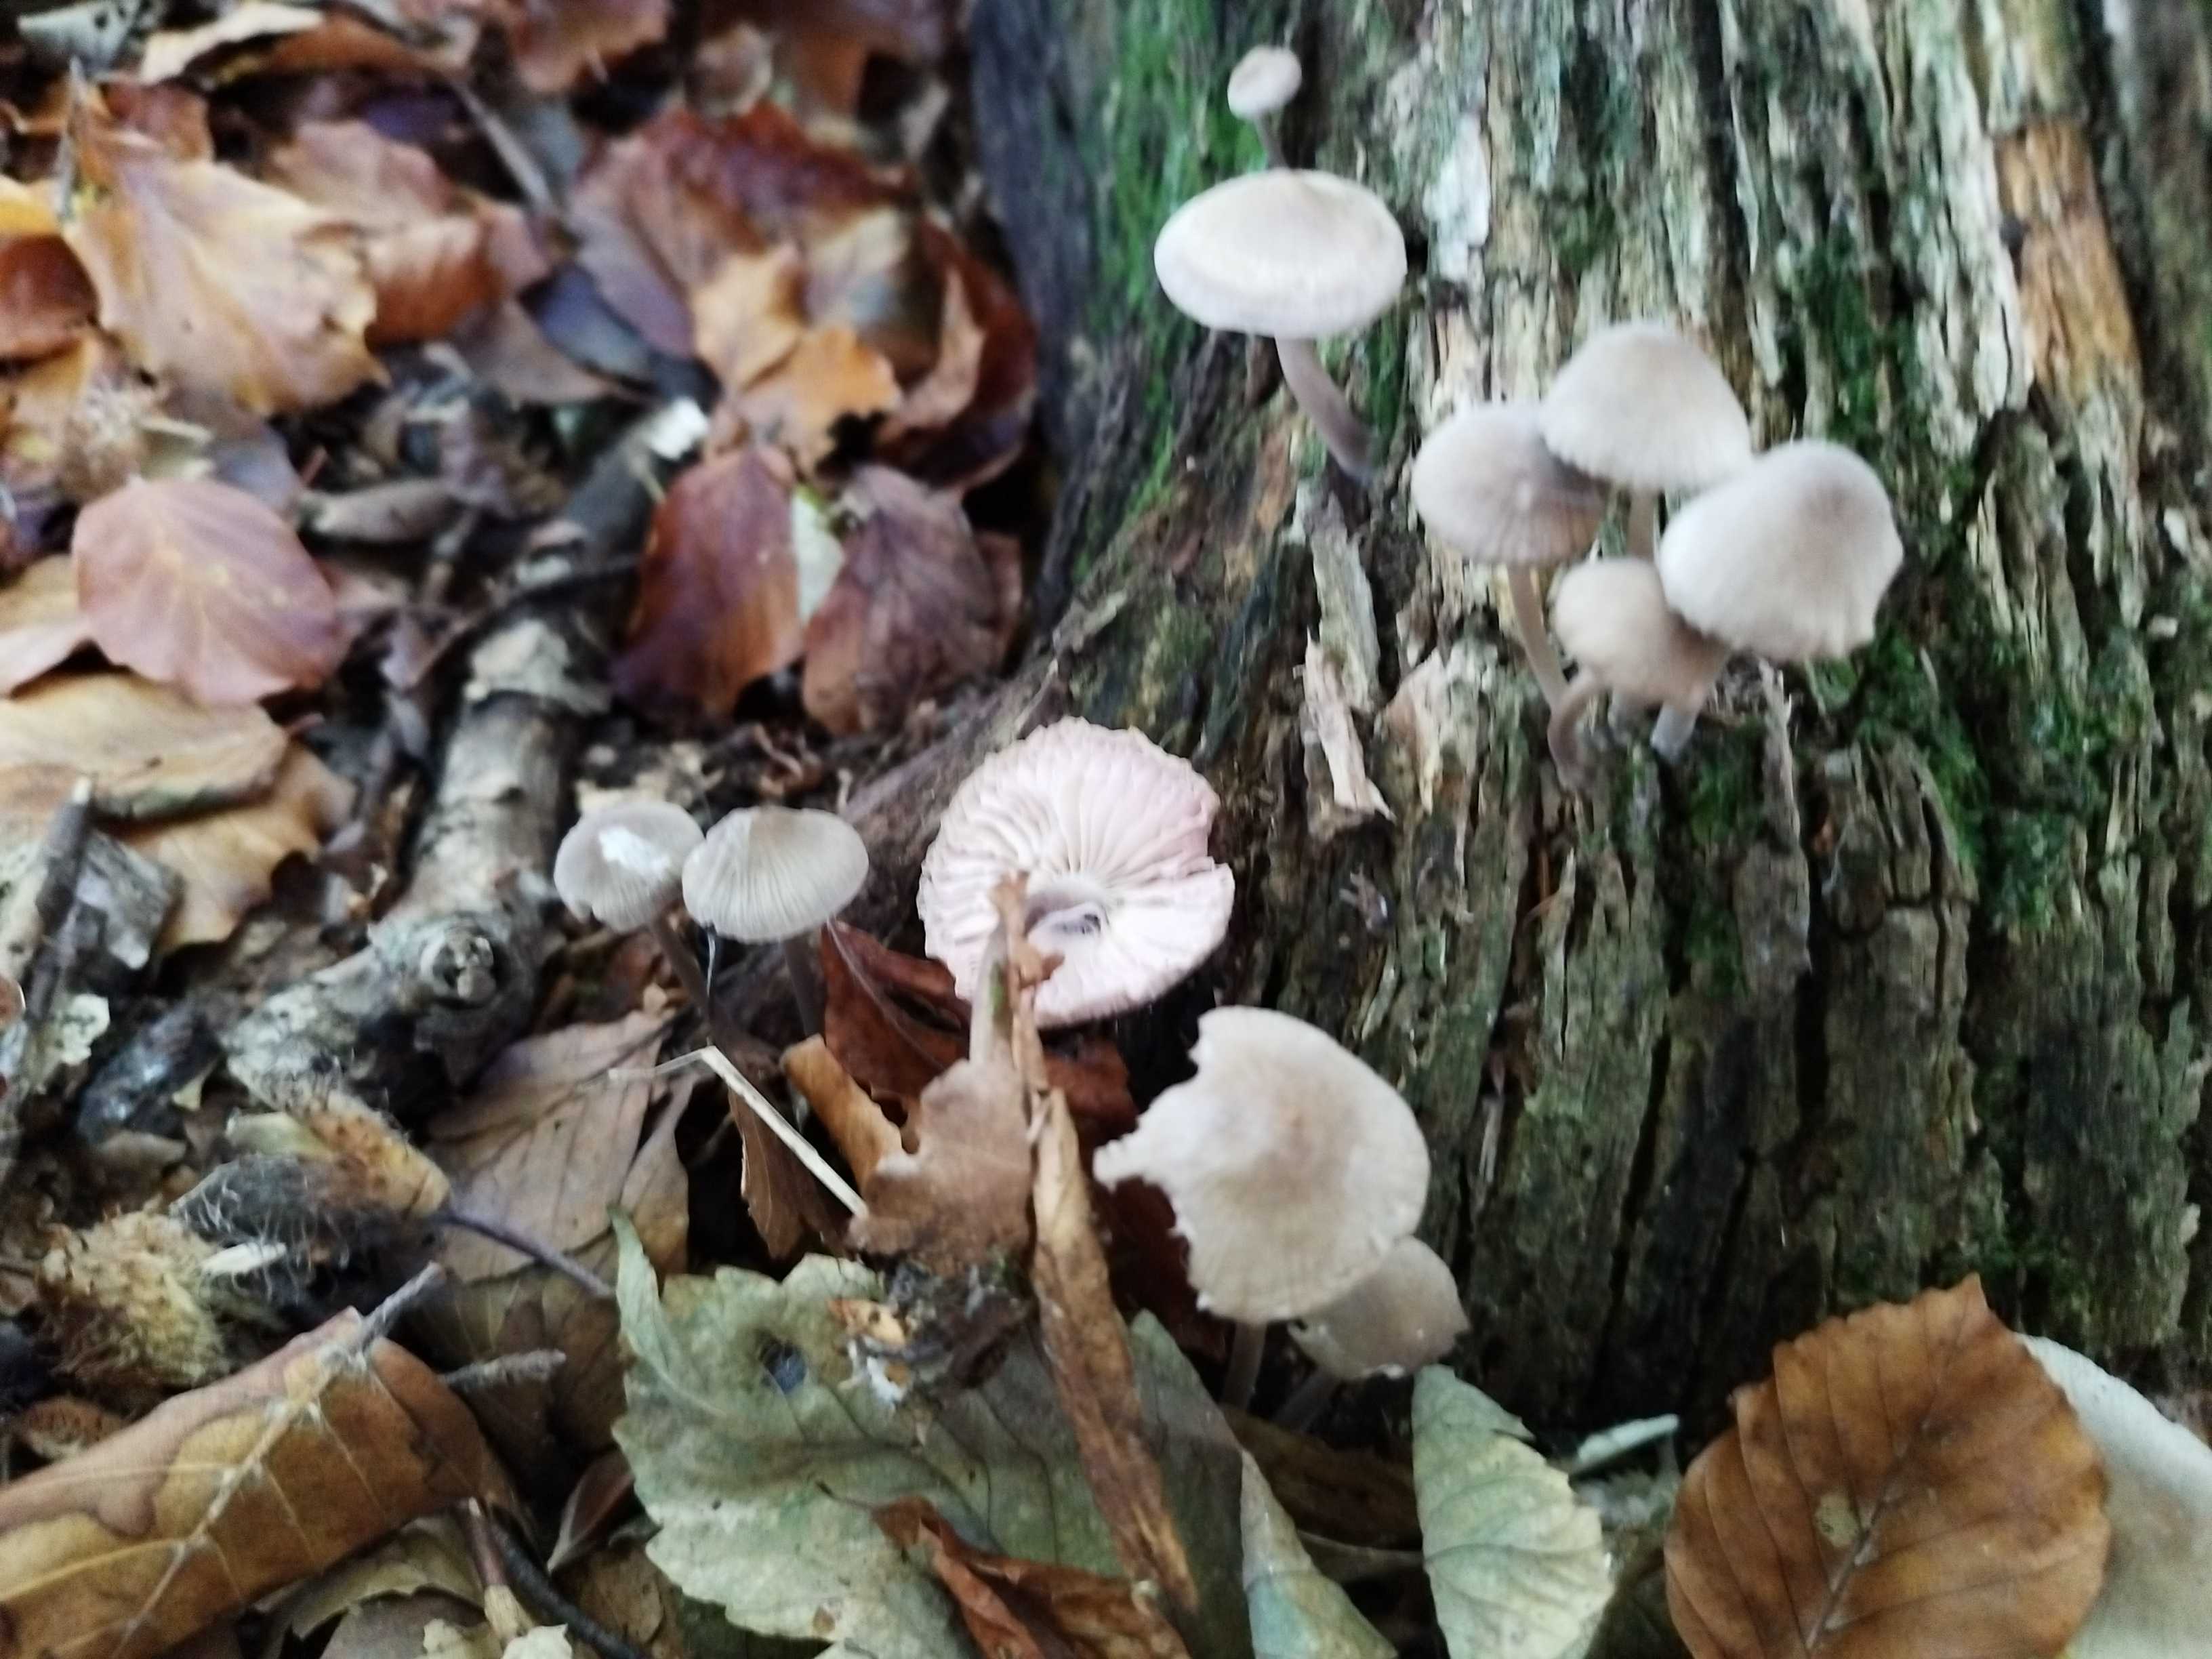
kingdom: Fungi
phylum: Basidiomycota
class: Agaricomycetes
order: Agaricales
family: Mycenaceae
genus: Mycena
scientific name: Mycena galericulata
